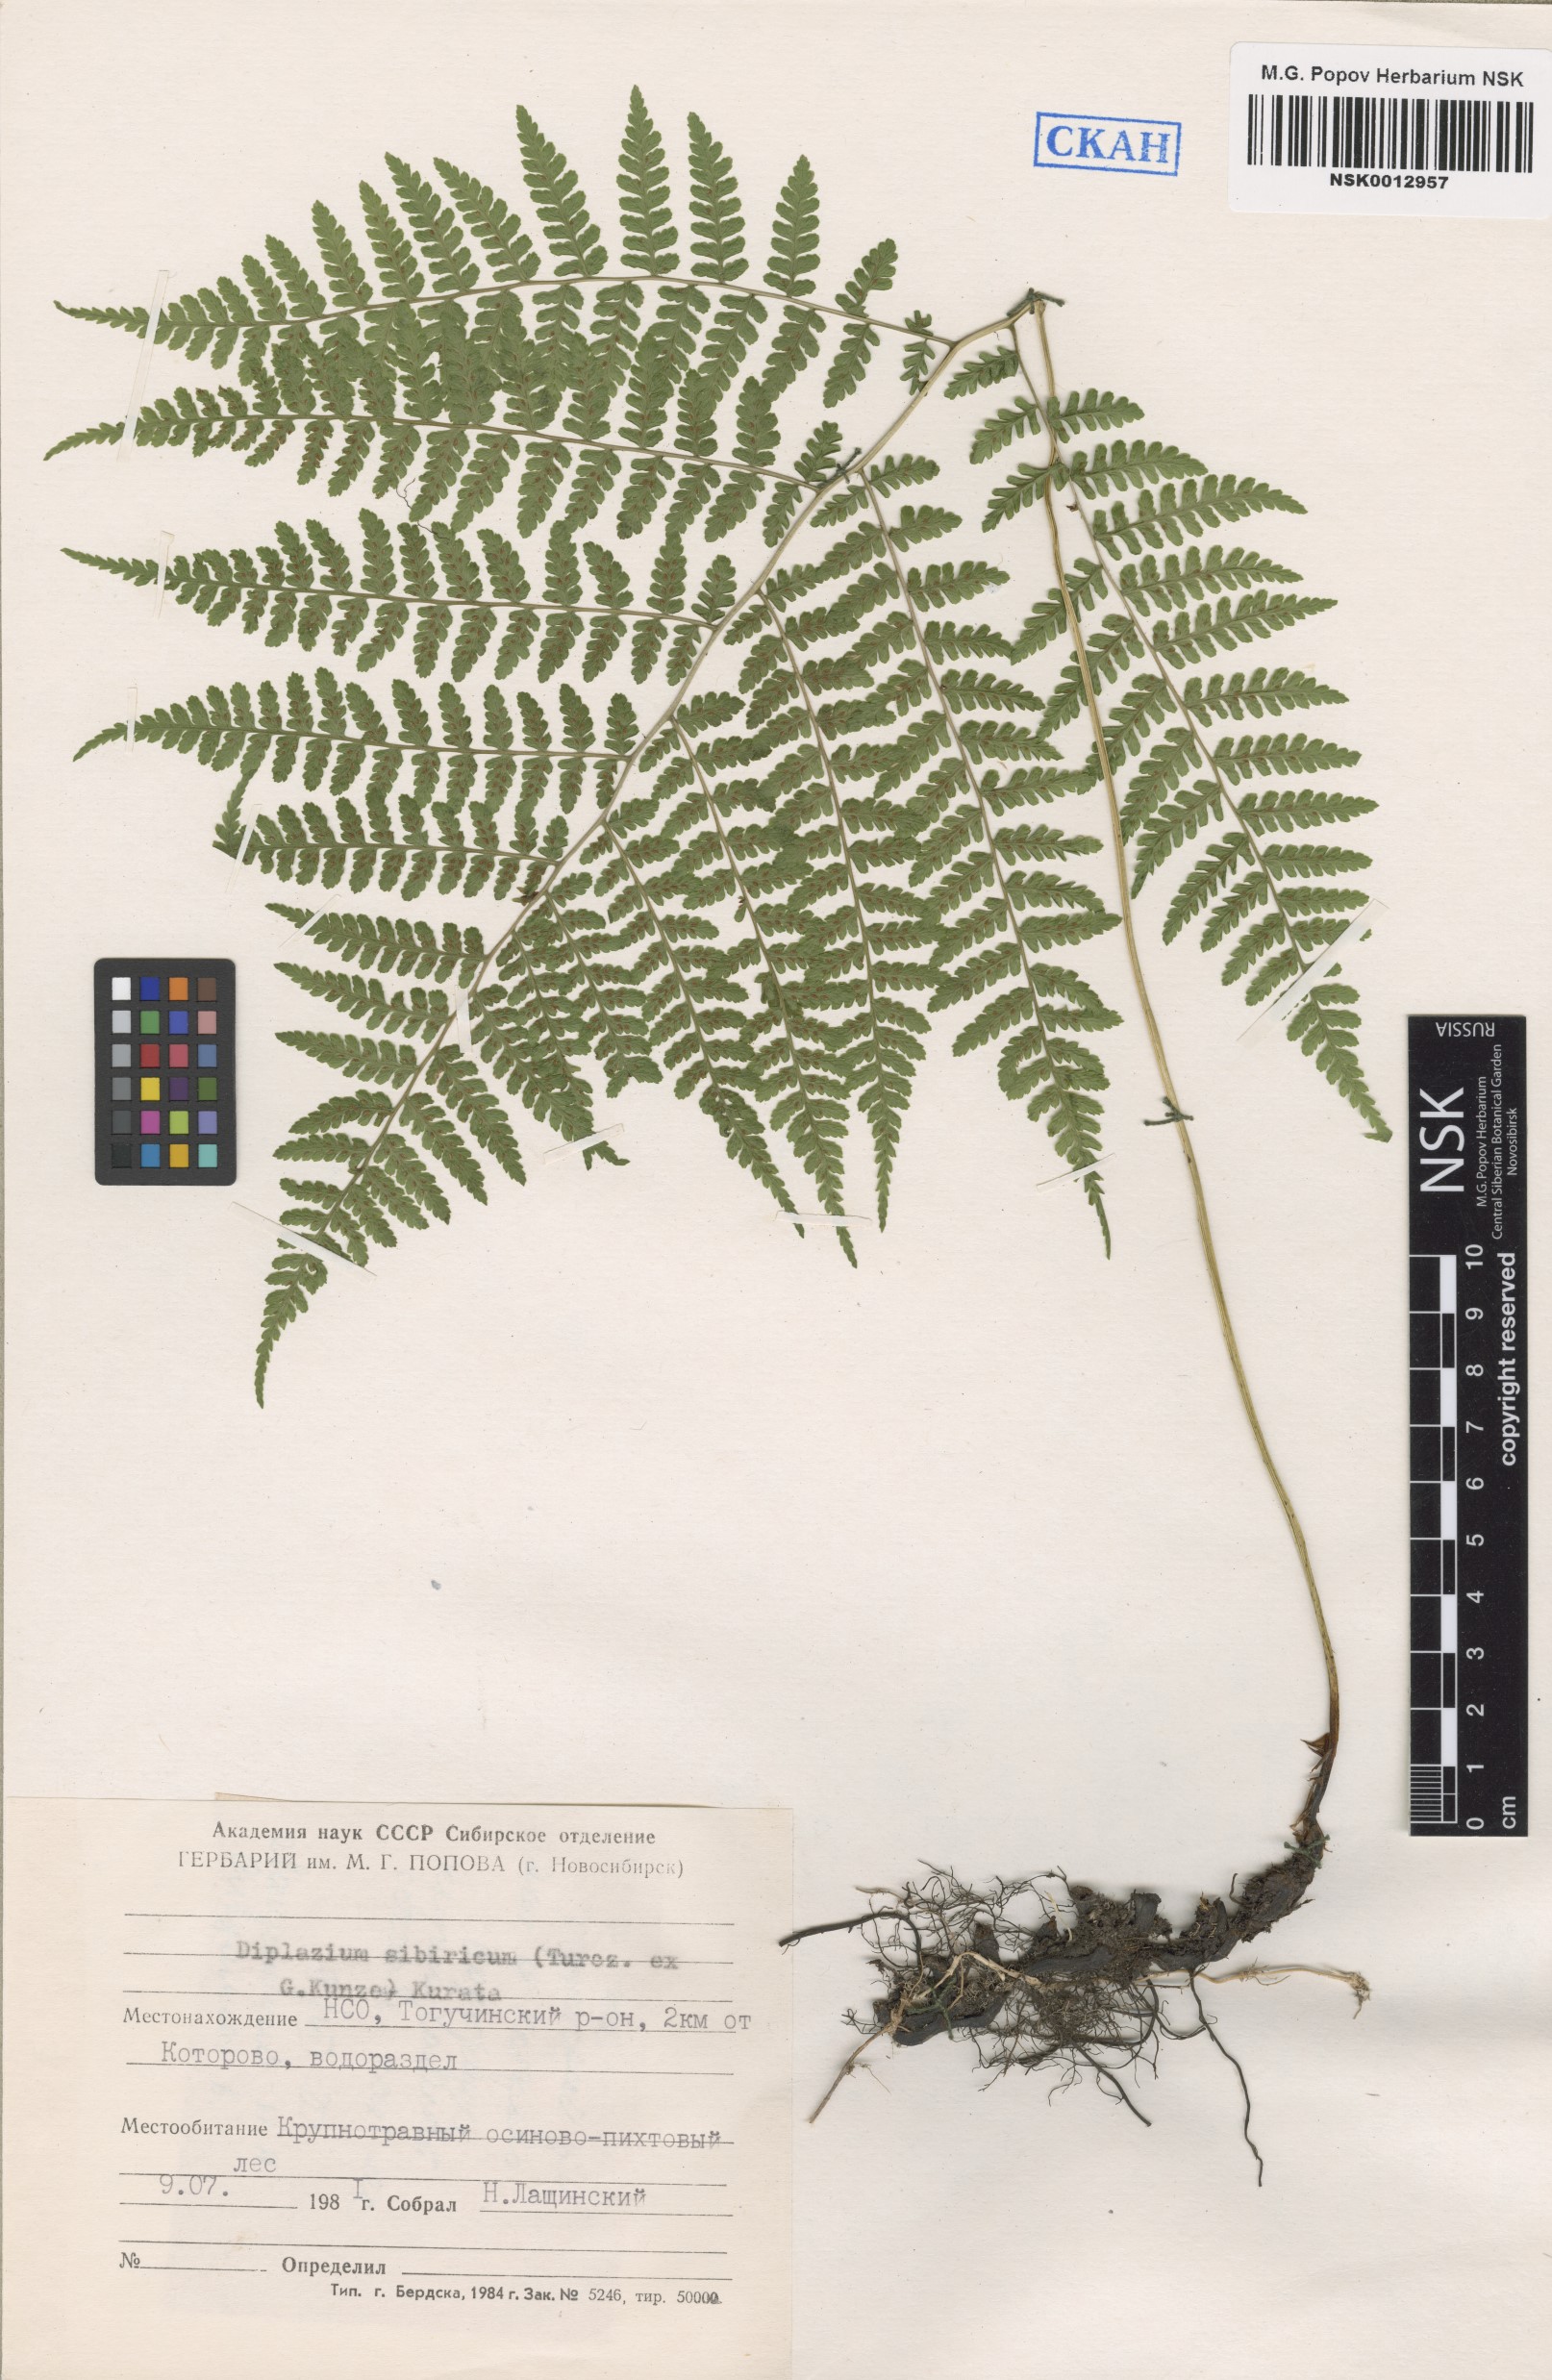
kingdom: Plantae
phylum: Tracheophyta
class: Polypodiopsida
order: Polypodiales
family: Athyriaceae
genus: Diplazium
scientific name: Diplazium sibiricum
